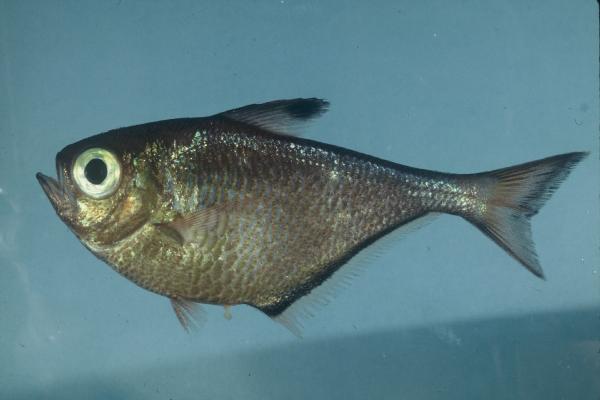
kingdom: Animalia
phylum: Chordata
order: Perciformes
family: Pempheridae
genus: Pempheris
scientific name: Pempheris schwenkii
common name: Silver bullseye
